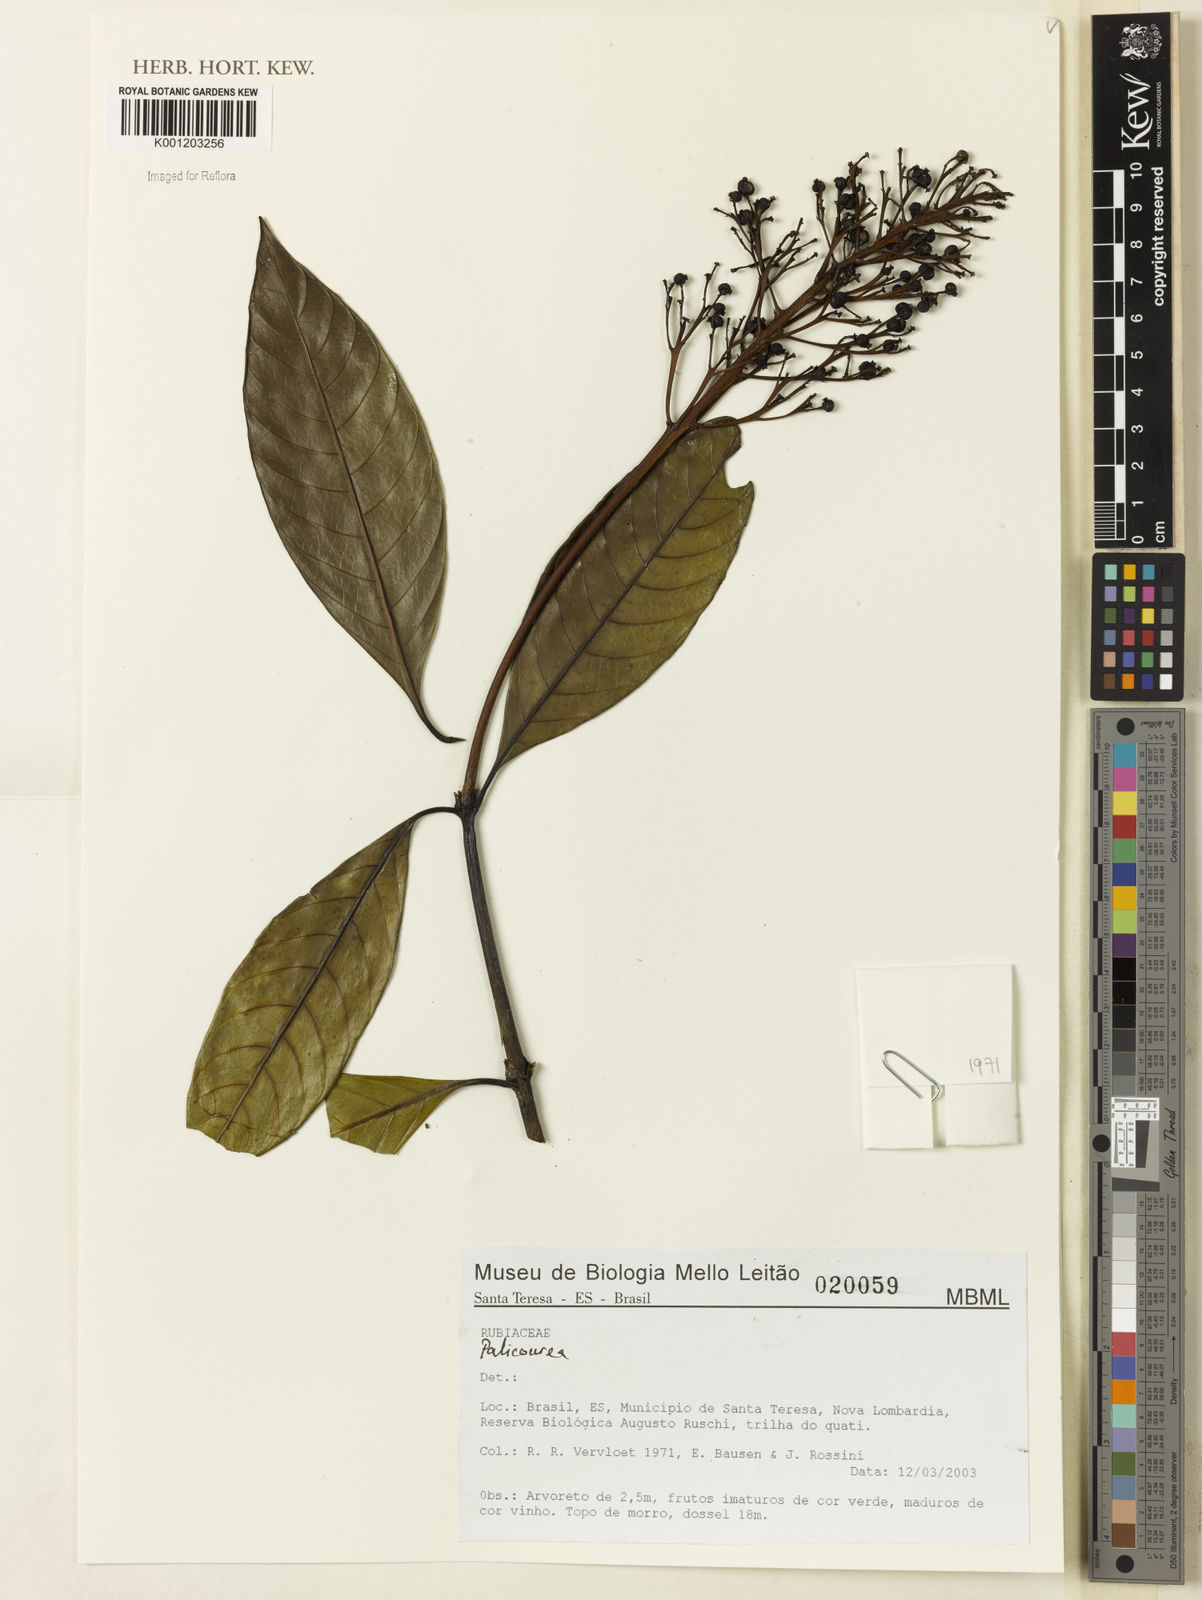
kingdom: Plantae
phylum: Tracheophyta
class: Magnoliopsida
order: Gentianales
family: Rubiaceae
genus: Palicourea
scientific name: Palicourea
